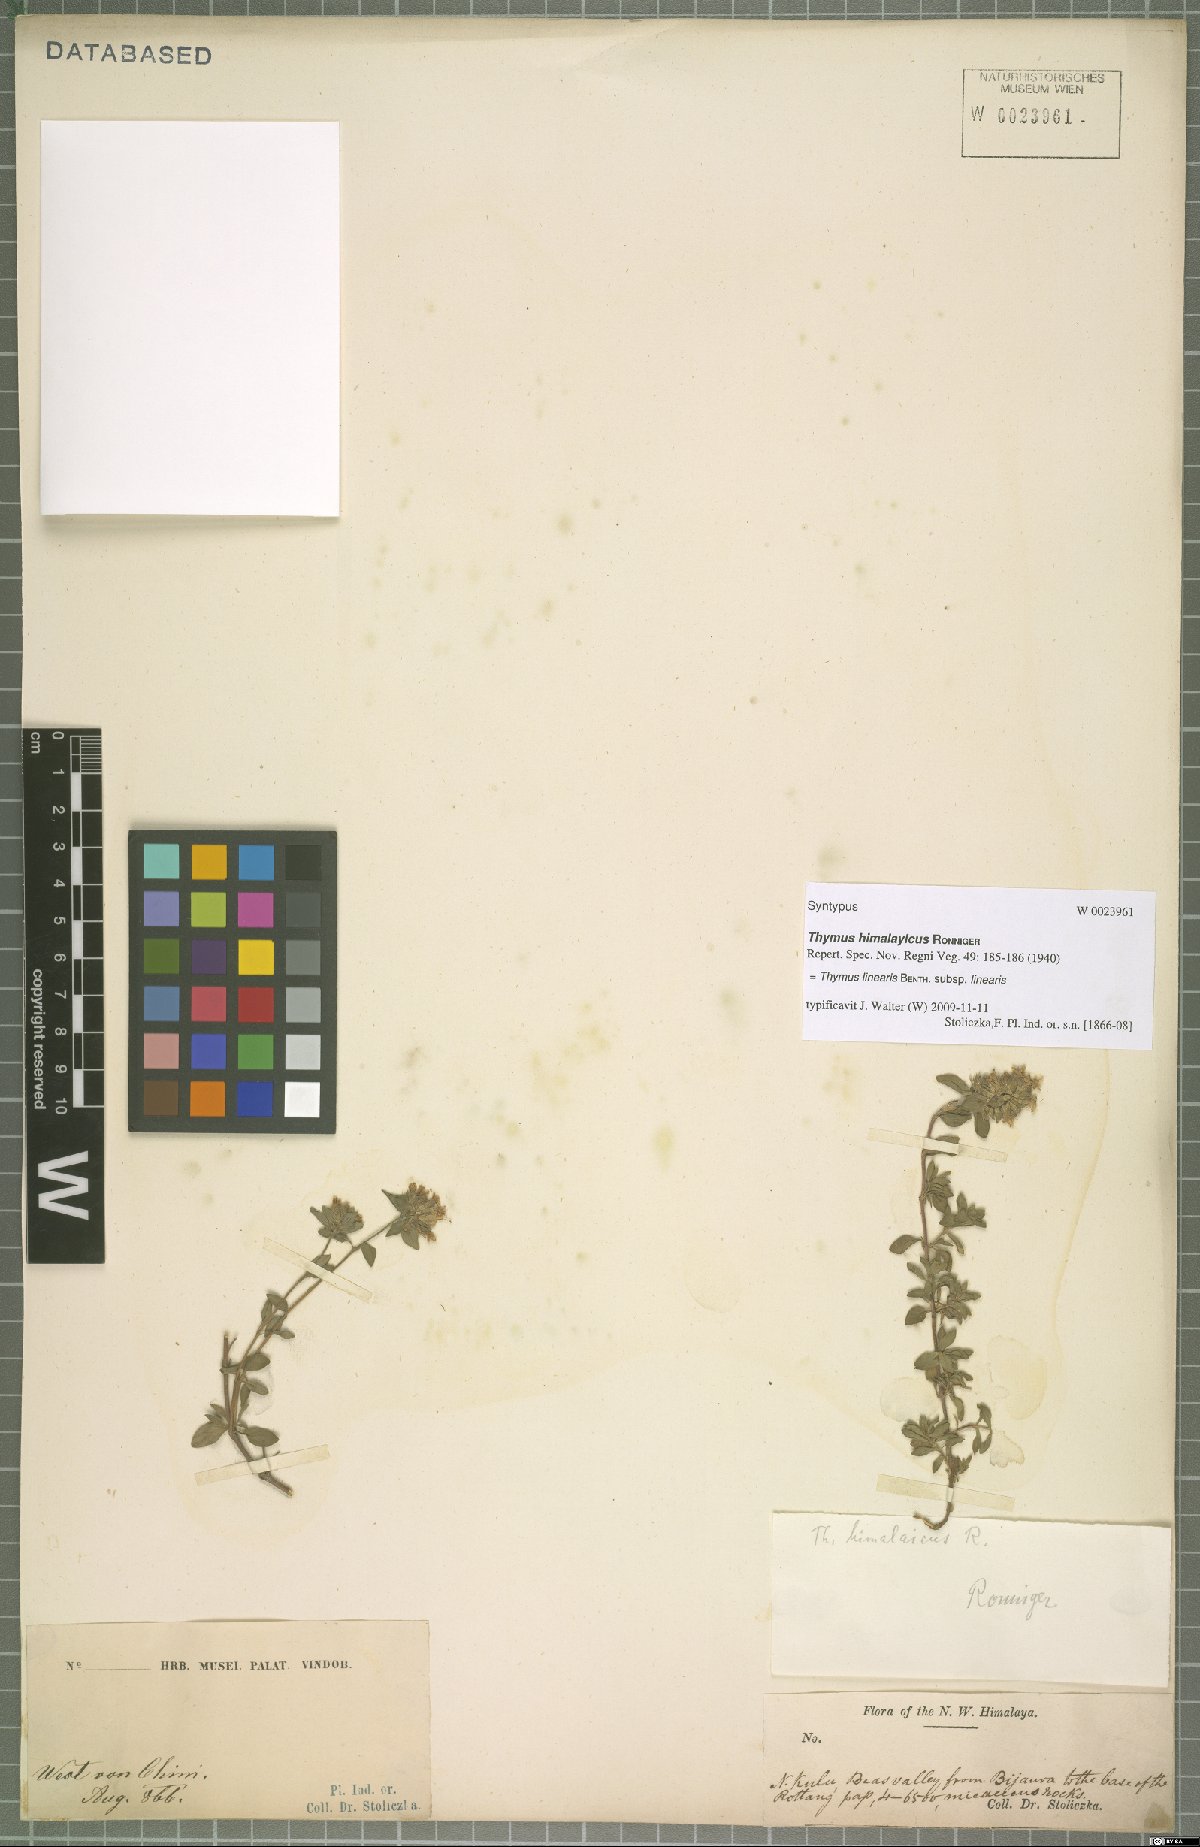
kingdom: Plantae
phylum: Tracheophyta
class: Magnoliopsida
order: Lamiales
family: Lamiaceae
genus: Thymus
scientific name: Thymus linearis
